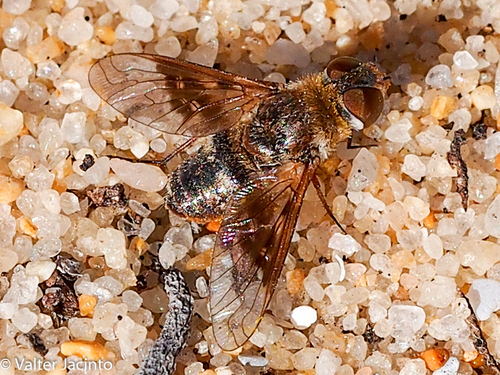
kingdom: Animalia
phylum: Arthropoda
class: Insecta
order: Diptera
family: Bombyliidae
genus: Thyridanthrax
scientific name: Thyridanthrax
